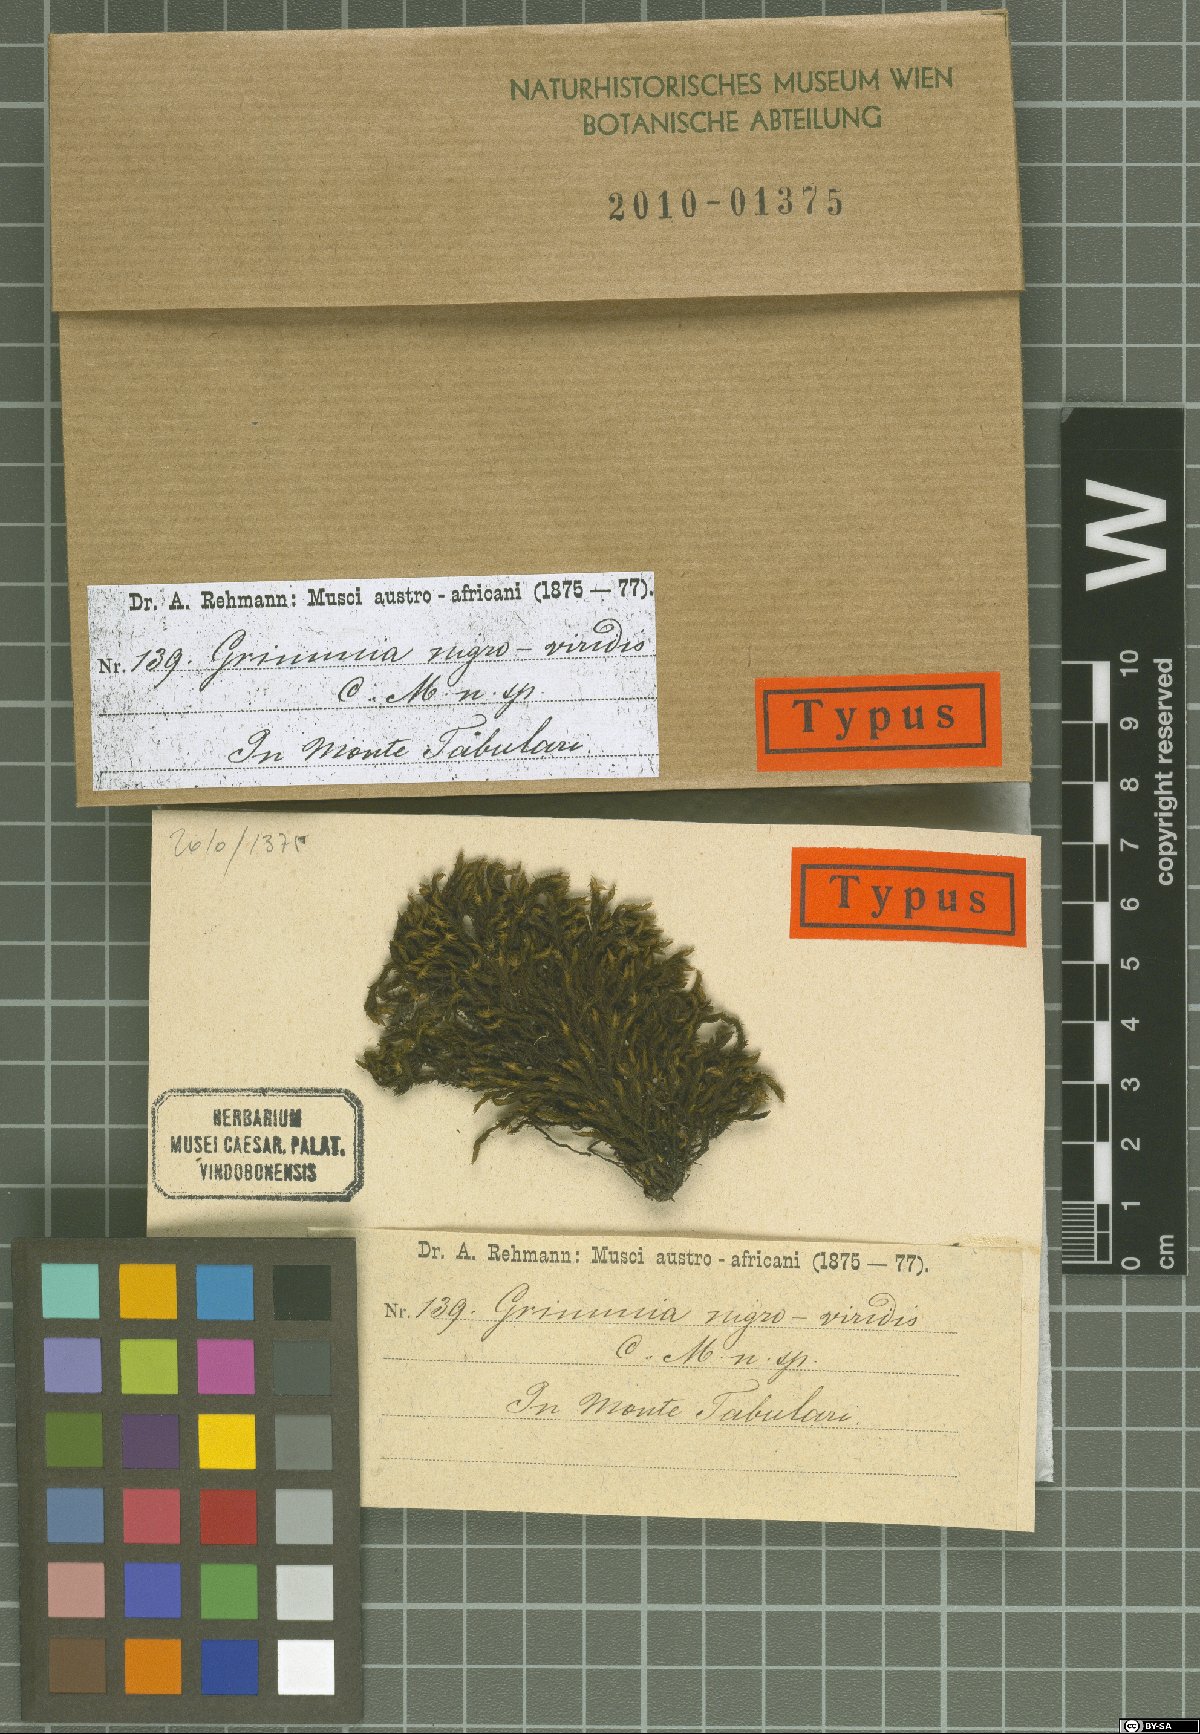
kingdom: Plantae
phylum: Bryophyta
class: Bryopsida
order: Grimmiales
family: Grimmiaceae
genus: Bucklandiella
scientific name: Bucklandiella lamprocarpa
